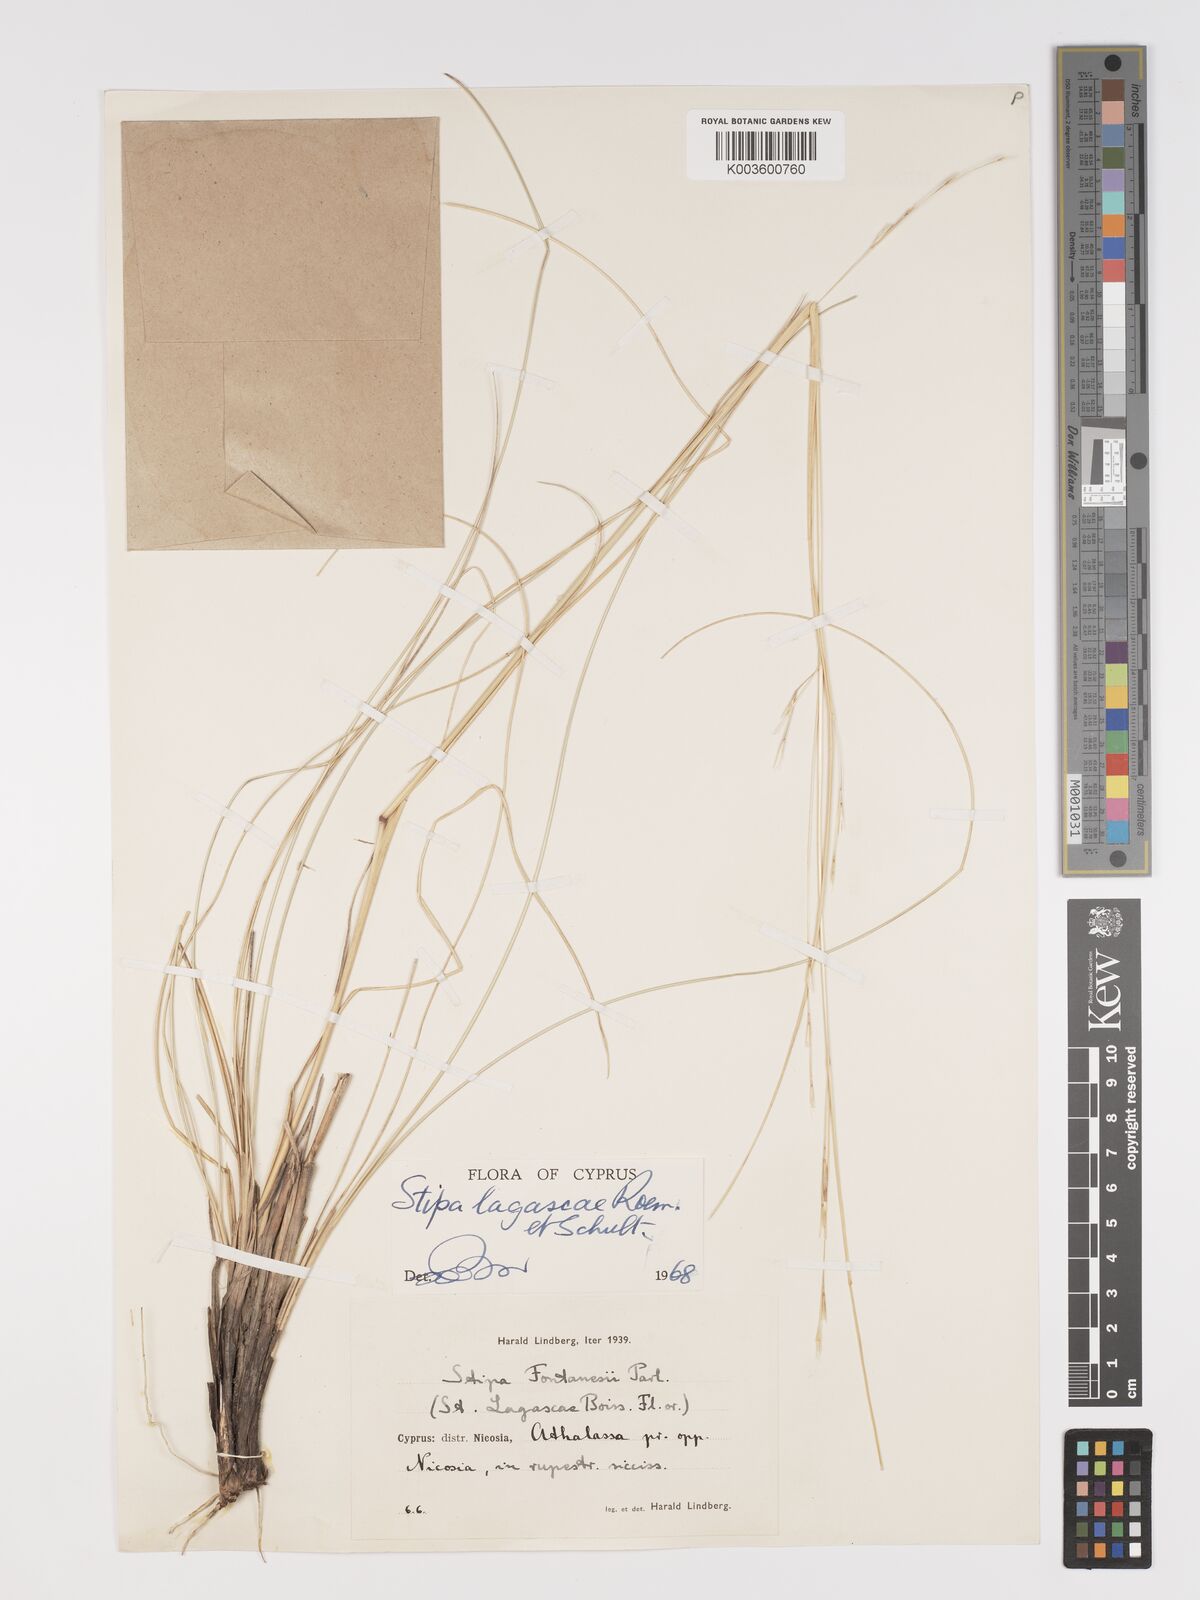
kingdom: Plantae
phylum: Tracheophyta
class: Liliopsida
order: Poales
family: Poaceae
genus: Stipa
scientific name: Stipa lagascae
